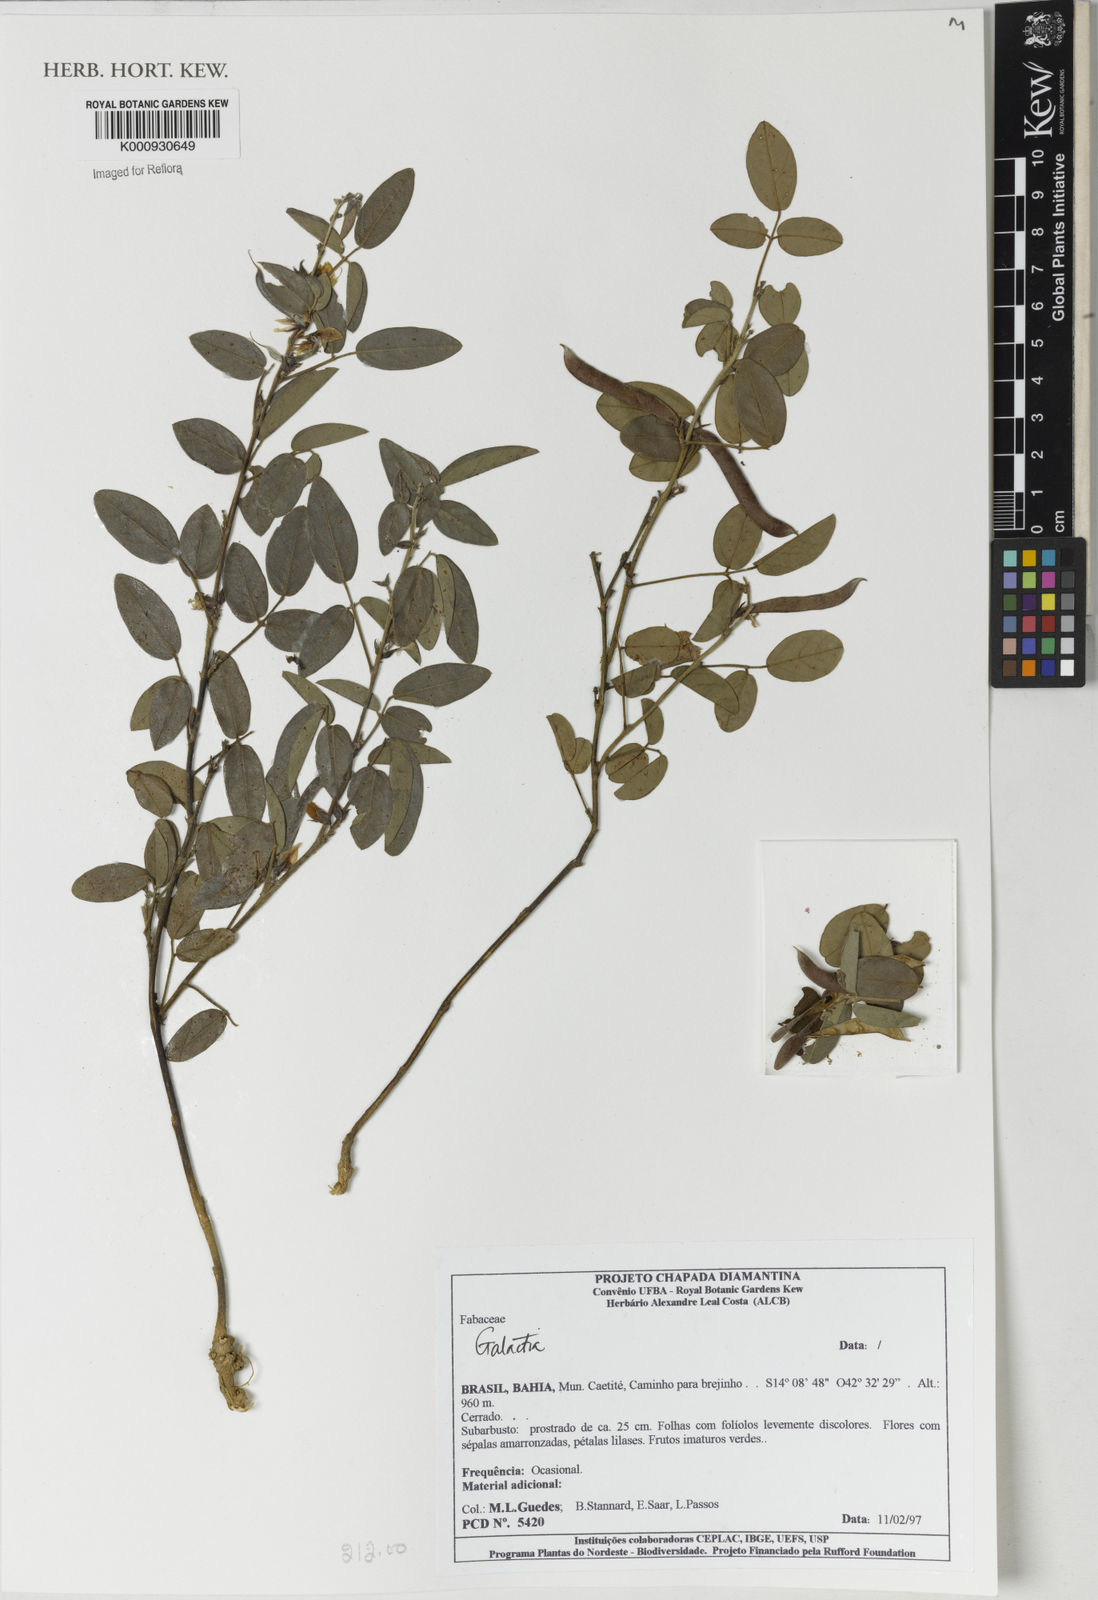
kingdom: Plantae
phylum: Tracheophyta
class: Magnoliopsida
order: Fabales
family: Fabaceae
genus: Galactia
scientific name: Galactia
